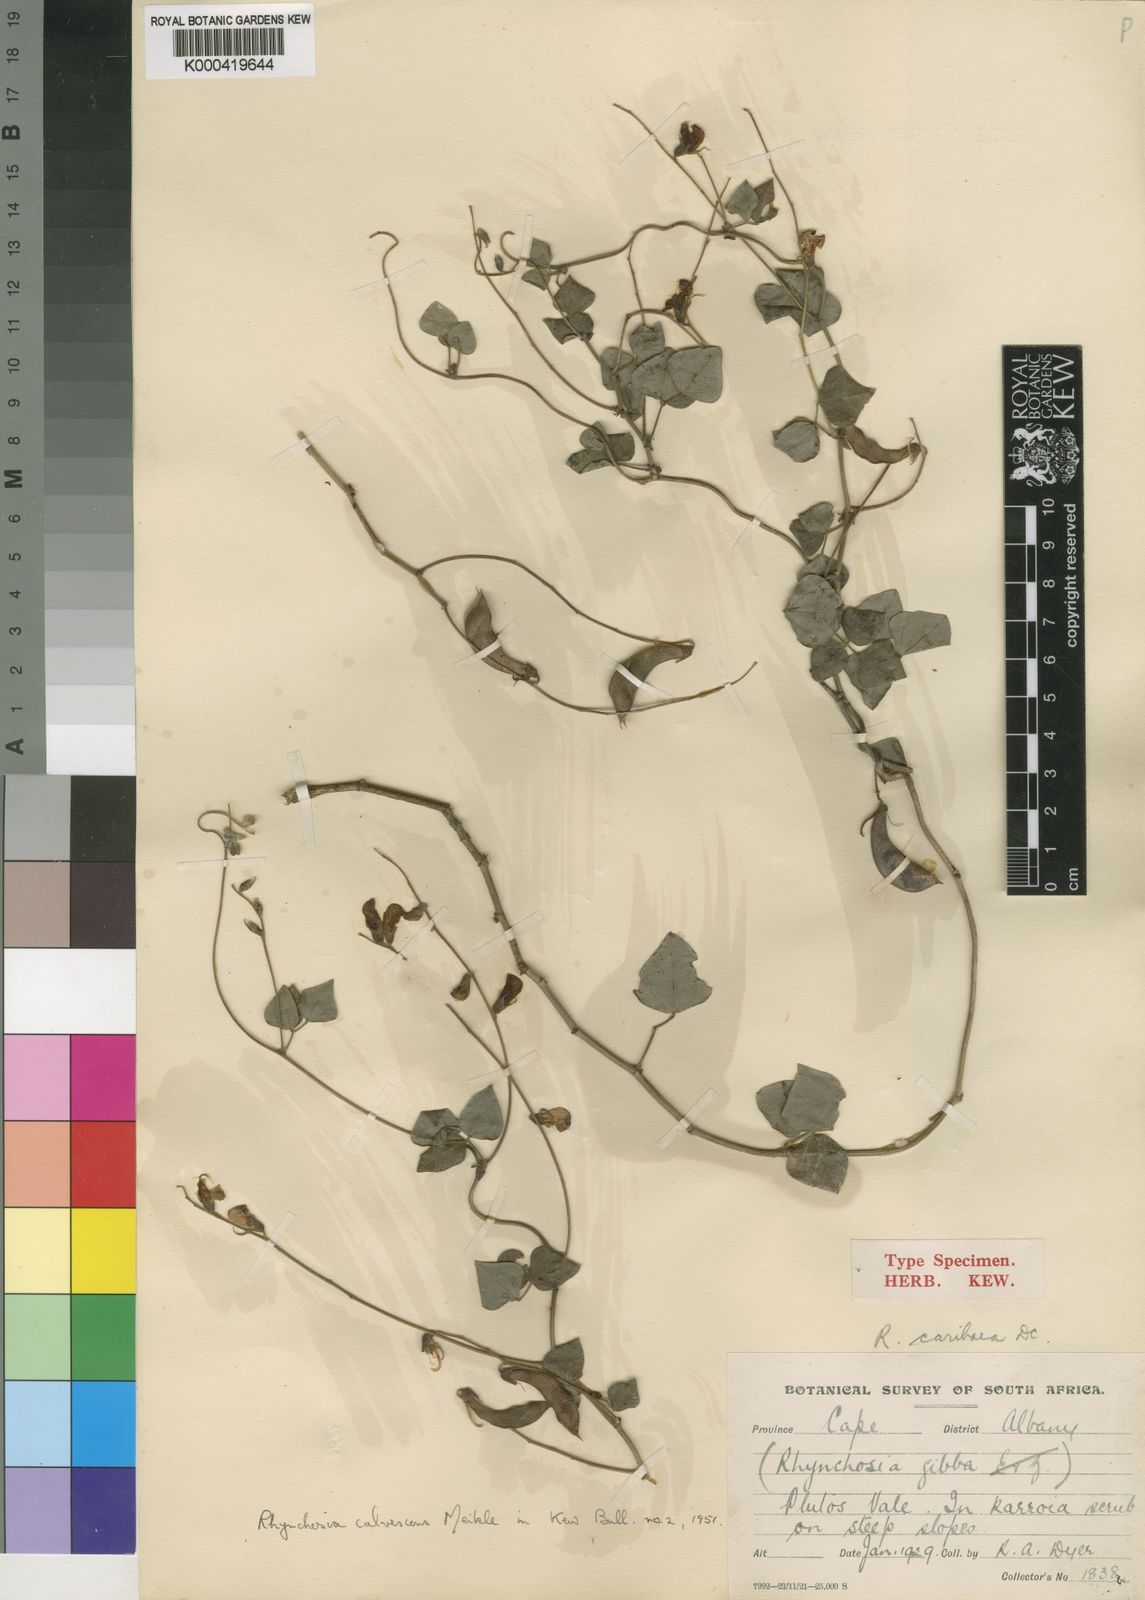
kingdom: Plantae
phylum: Tracheophyta
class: Magnoliopsida
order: Fabales
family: Fabaceae
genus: Rhynchosia
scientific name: Rhynchosia caribaea
